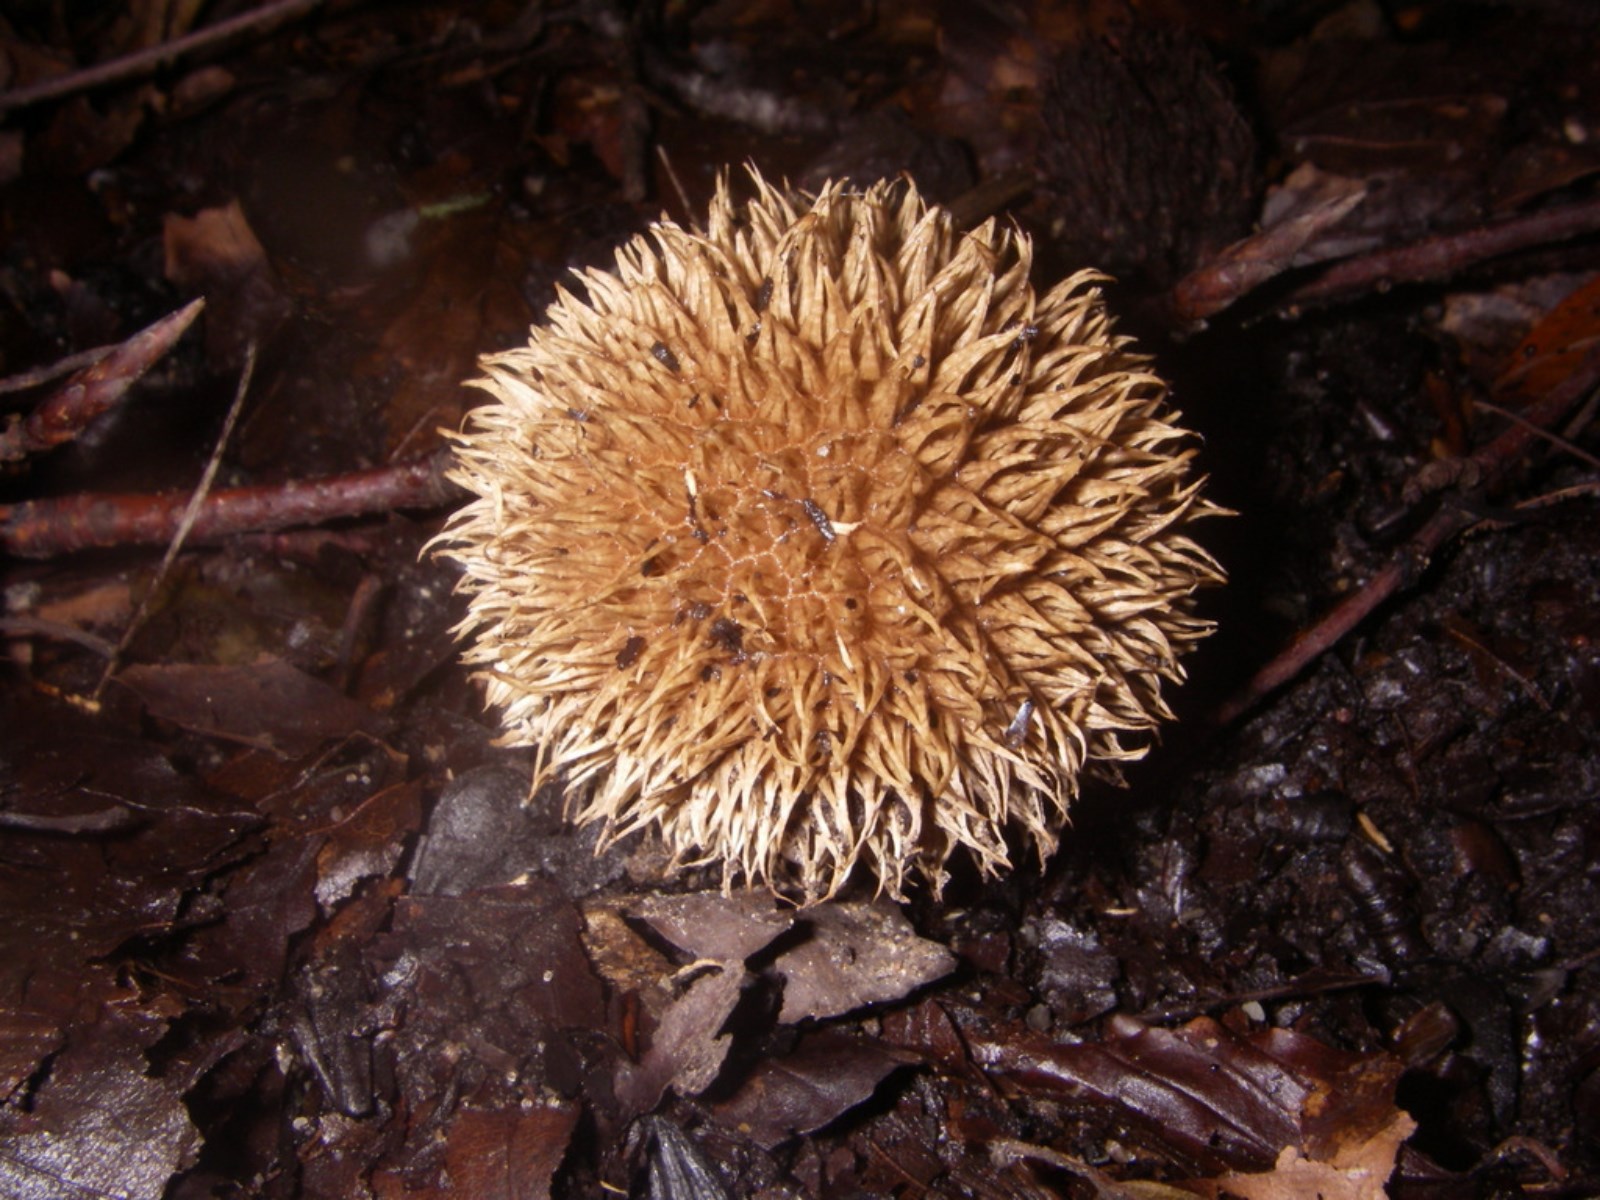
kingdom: Fungi
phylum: Basidiomycota
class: Agaricomycetes
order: Agaricales
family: Lycoperdaceae
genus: Lycoperdon
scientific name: Lycoperdon echinatum
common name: pindsvine-støvbold
